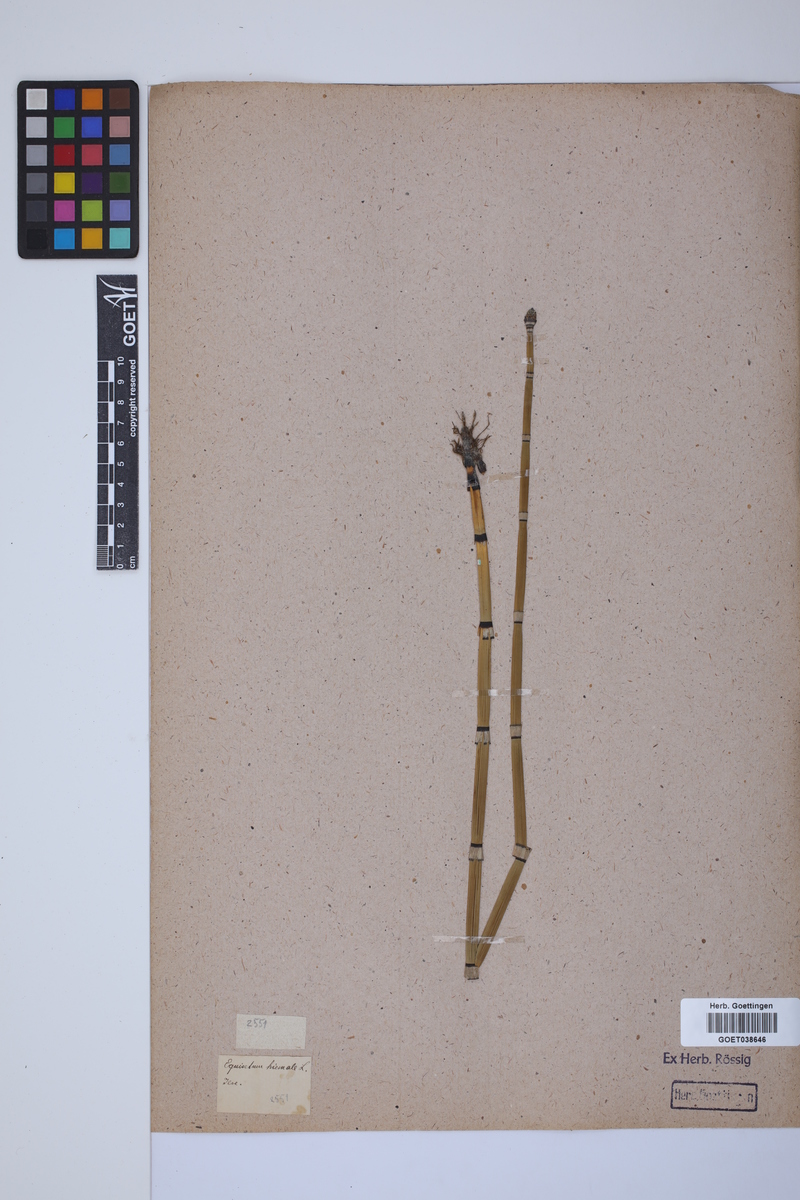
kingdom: Plantae
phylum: Tracheophyta
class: Polypodiopsida
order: Equisetales
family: Equisetaceae
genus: Equisetum
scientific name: Equisetum hyemale
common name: Rough horsetail
